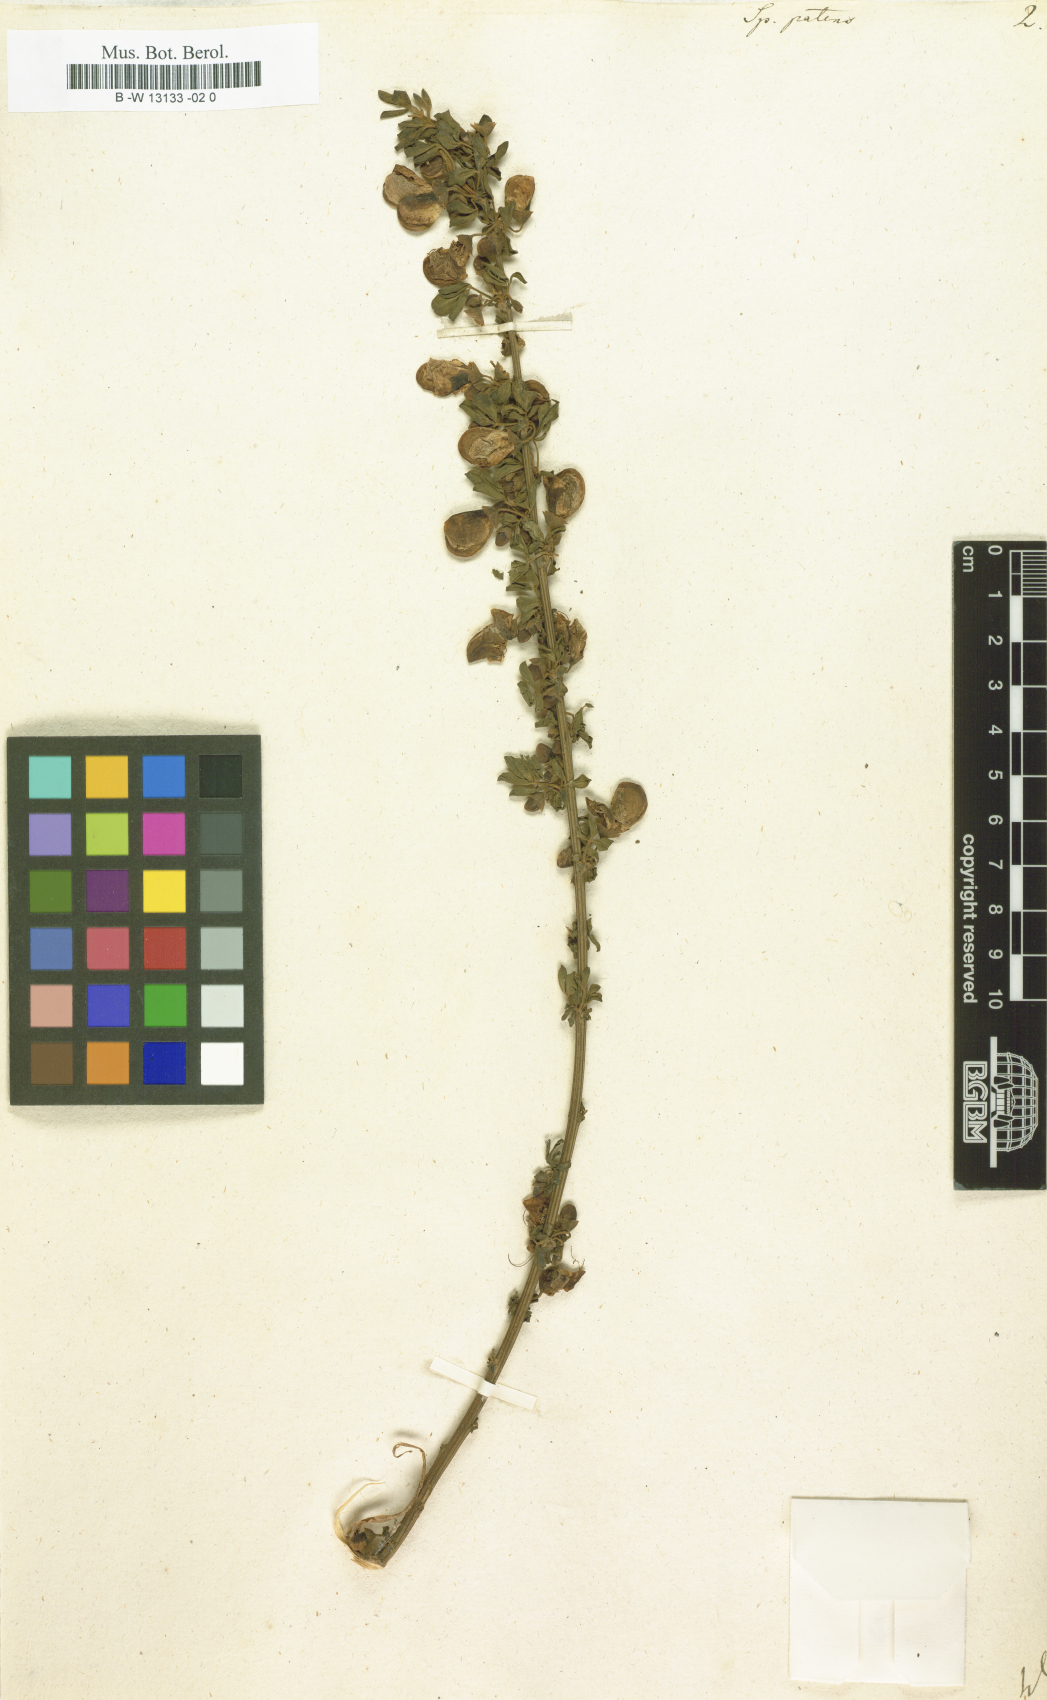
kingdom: Plantae
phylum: Tracheophyta
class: Magnoliopsida
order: Fabales
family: Fabaceae
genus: Cytisus
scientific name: Cytisus striatus
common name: Hairy-fruited broom
